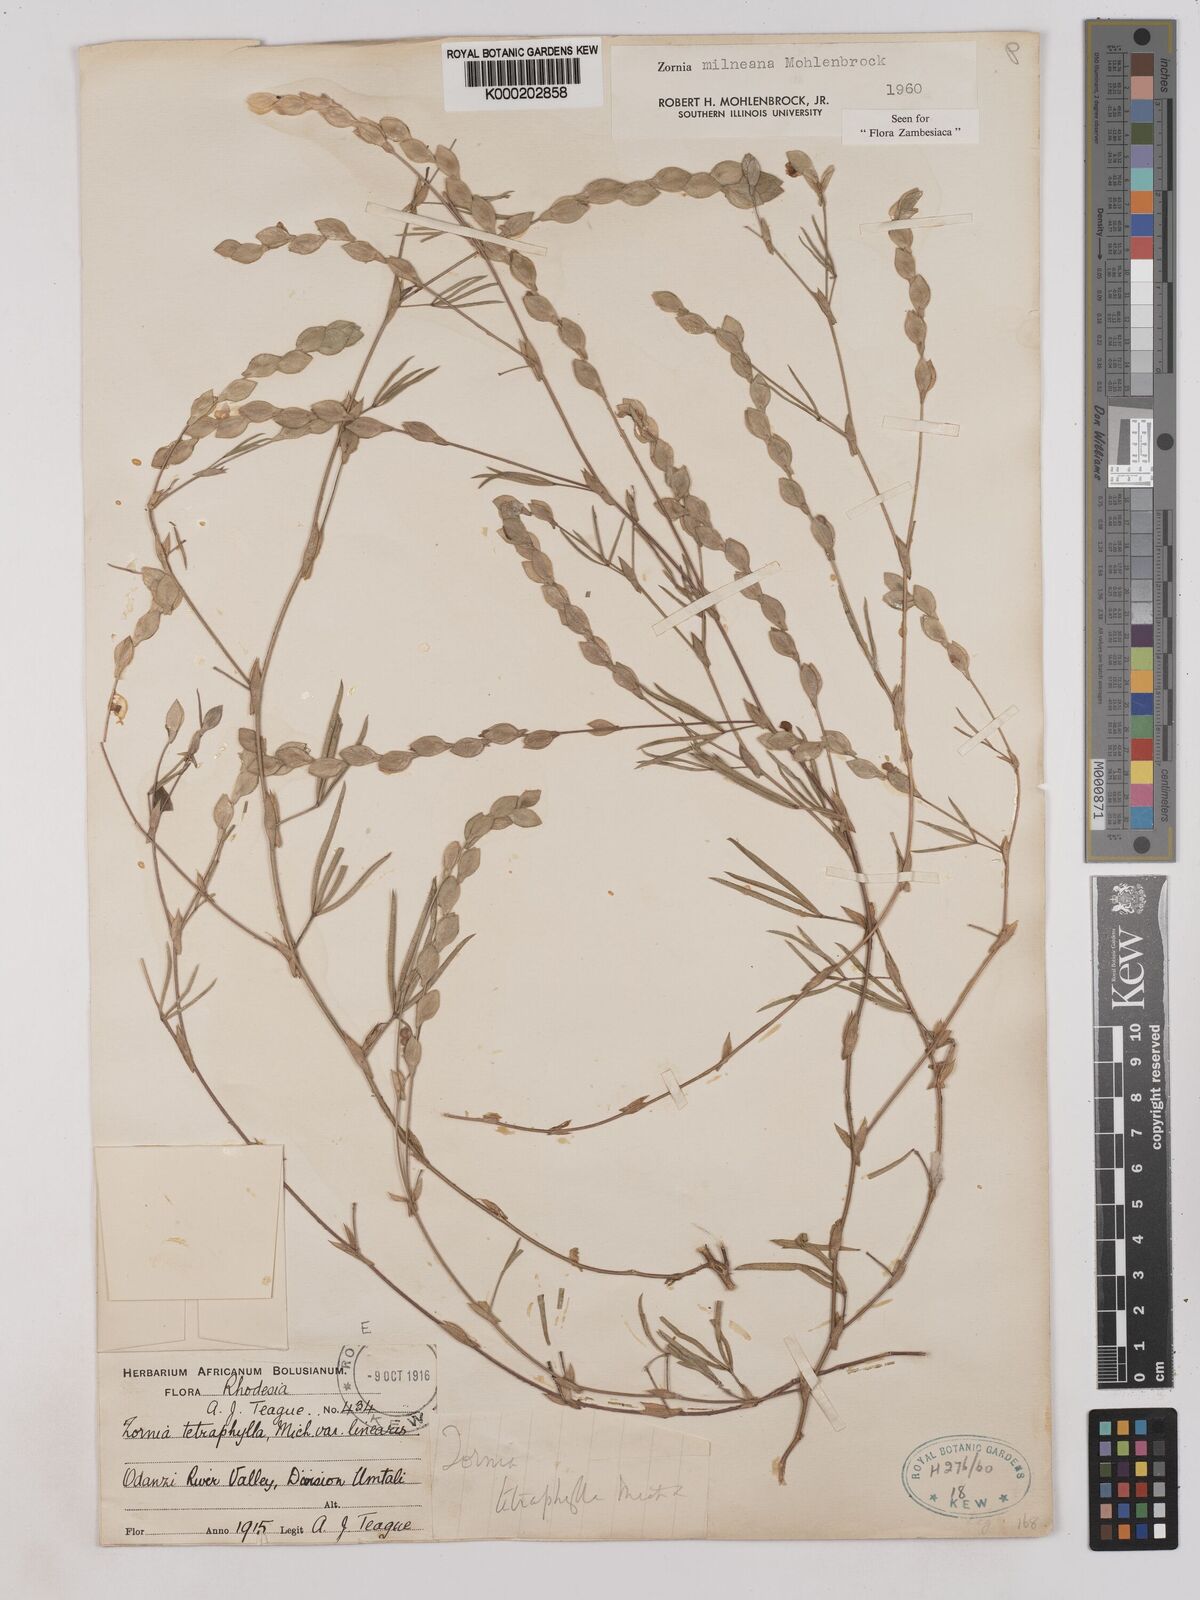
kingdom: Plantae
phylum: Tracheophyta
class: Magnoliopsida
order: Fabales
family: Fabaceae
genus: Zornia
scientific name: Zornia milneana
